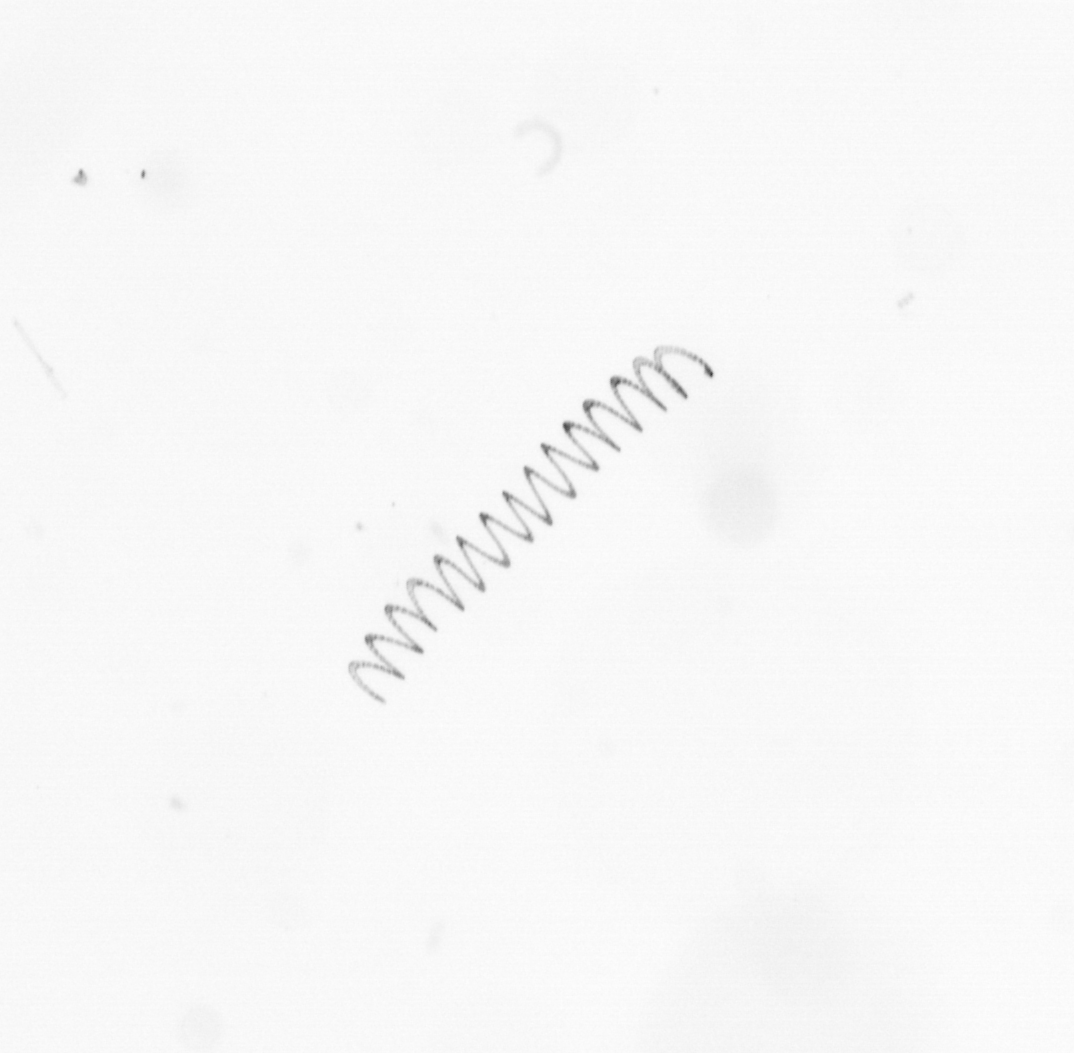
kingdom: Chromista
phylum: Ochrophyta
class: Bacillariophyceae
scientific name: Bacillariophyceae
